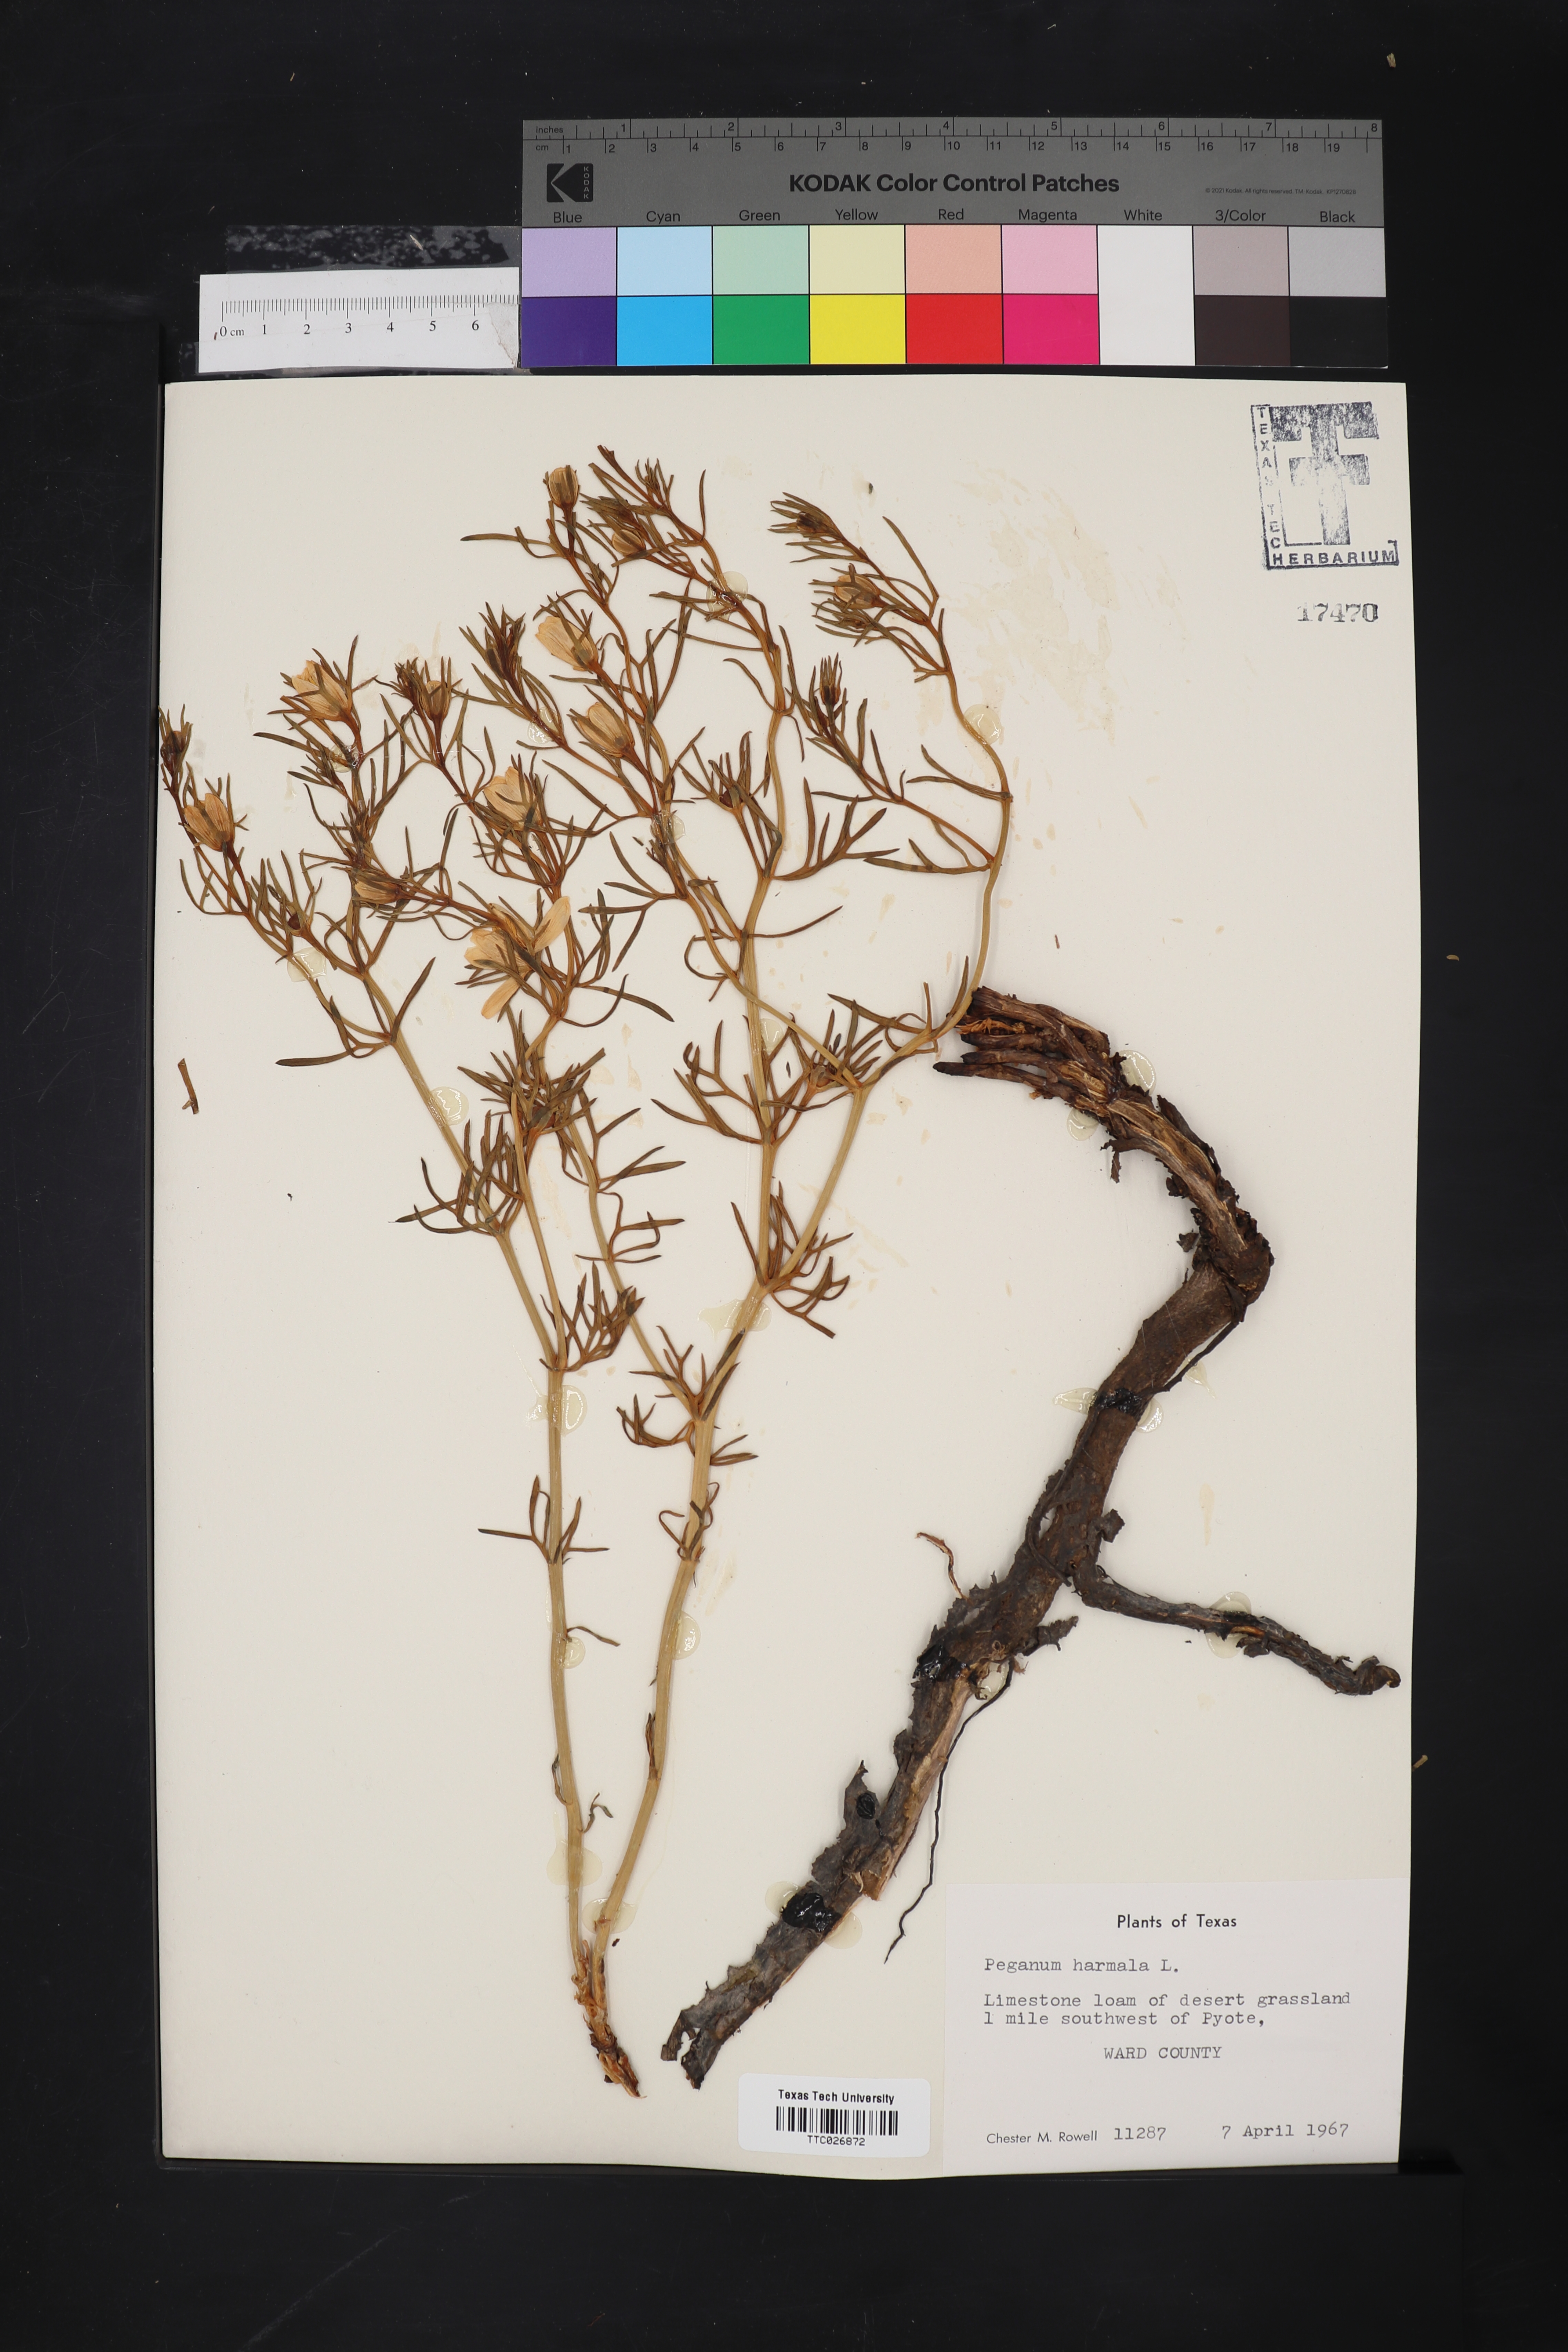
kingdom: Plantae
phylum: Tracheophyta
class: Magnoliopsida
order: Sapindales
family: Tetradiclidaceae
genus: Peganum
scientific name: Peganum harmala
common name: Harmal peganum
